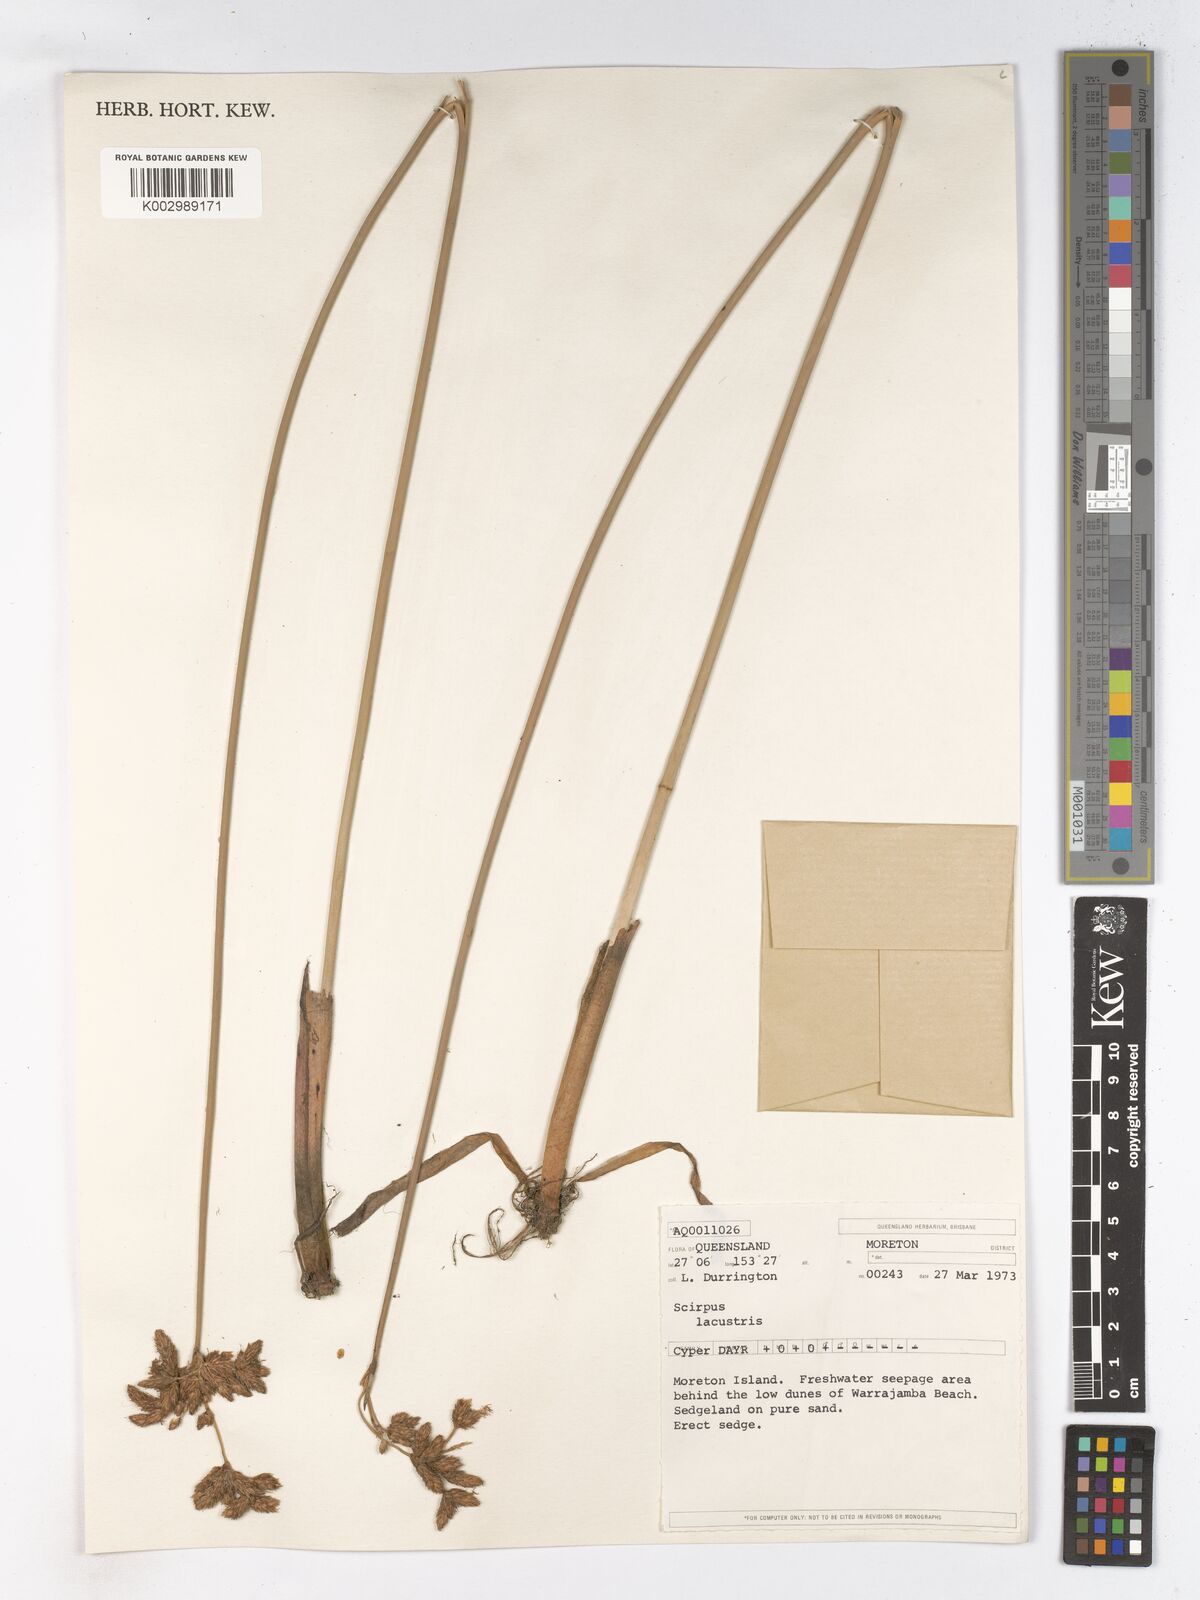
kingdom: Plantae
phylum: Tracheophyta
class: Liliopsida
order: Poales
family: Cyperaceae
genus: Schoenoplectus
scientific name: Schoenoplectus lacustris
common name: Common club-rush
